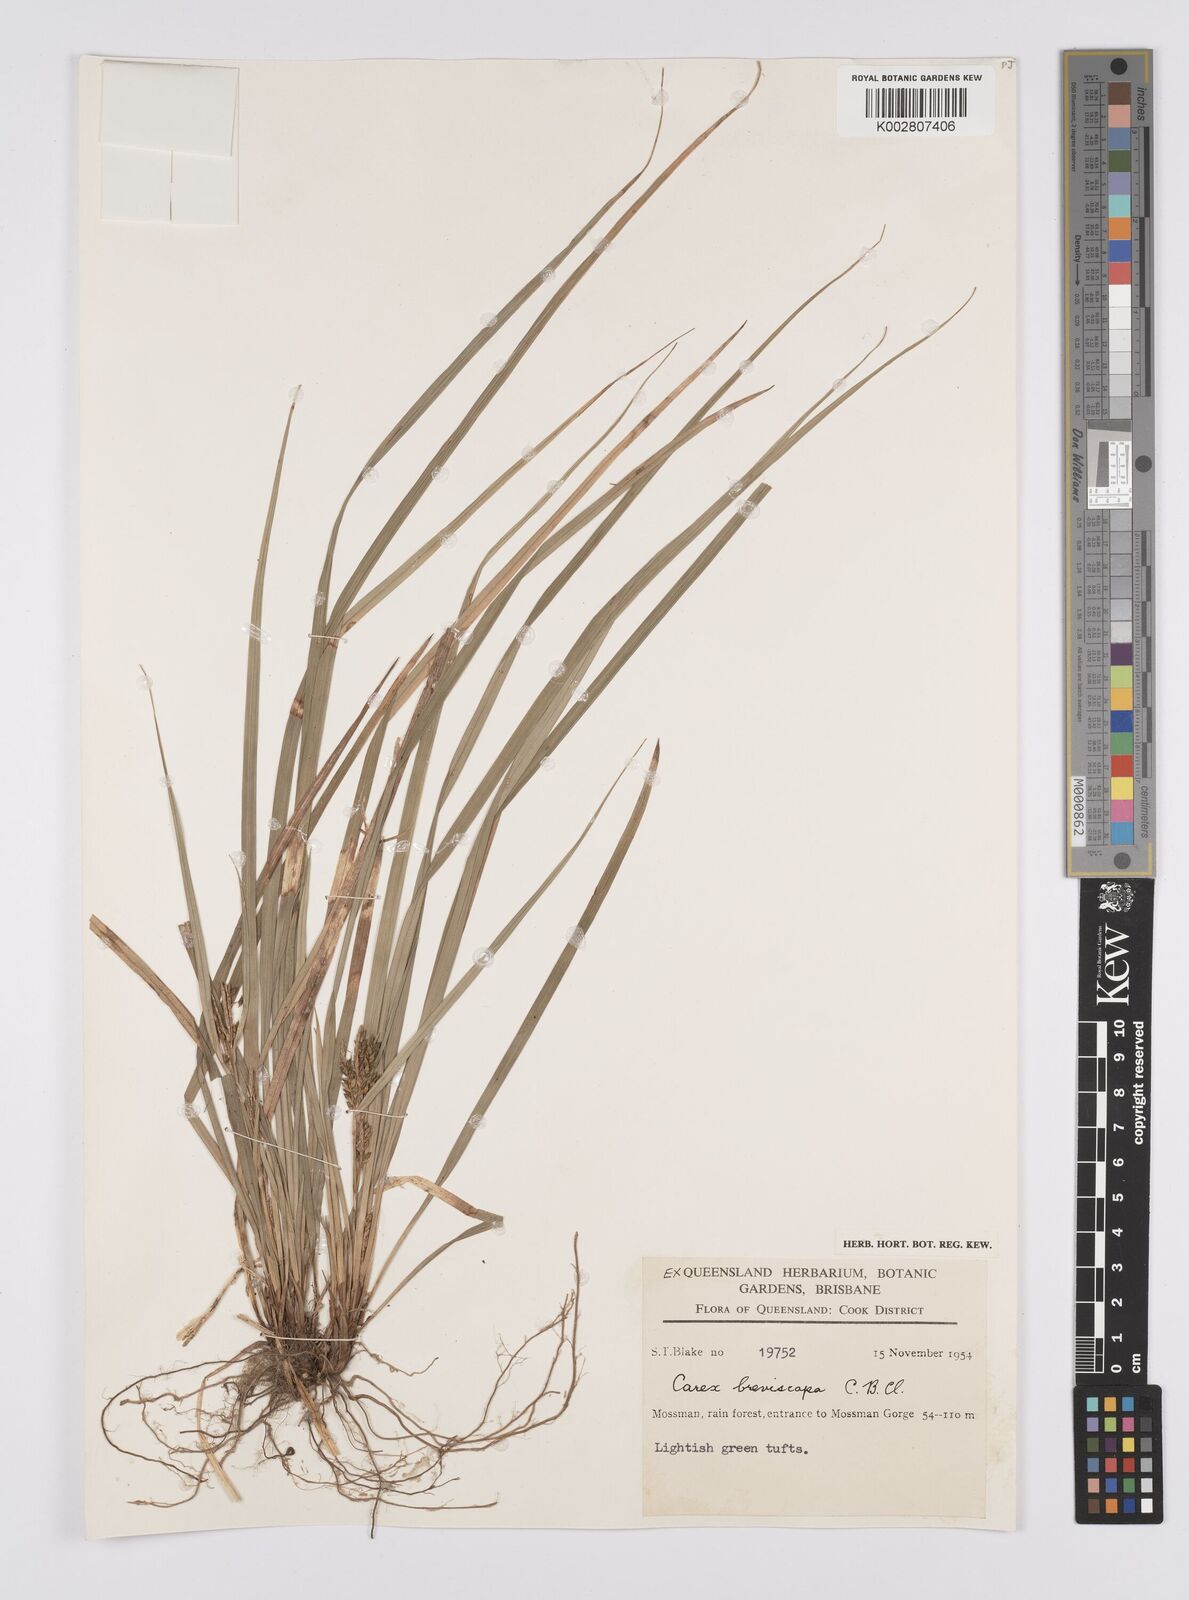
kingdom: Plantae
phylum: Tracheophyta
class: Liliopsida
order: Poales
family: Cyperaceae
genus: Carex
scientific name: Carex breviscapa
